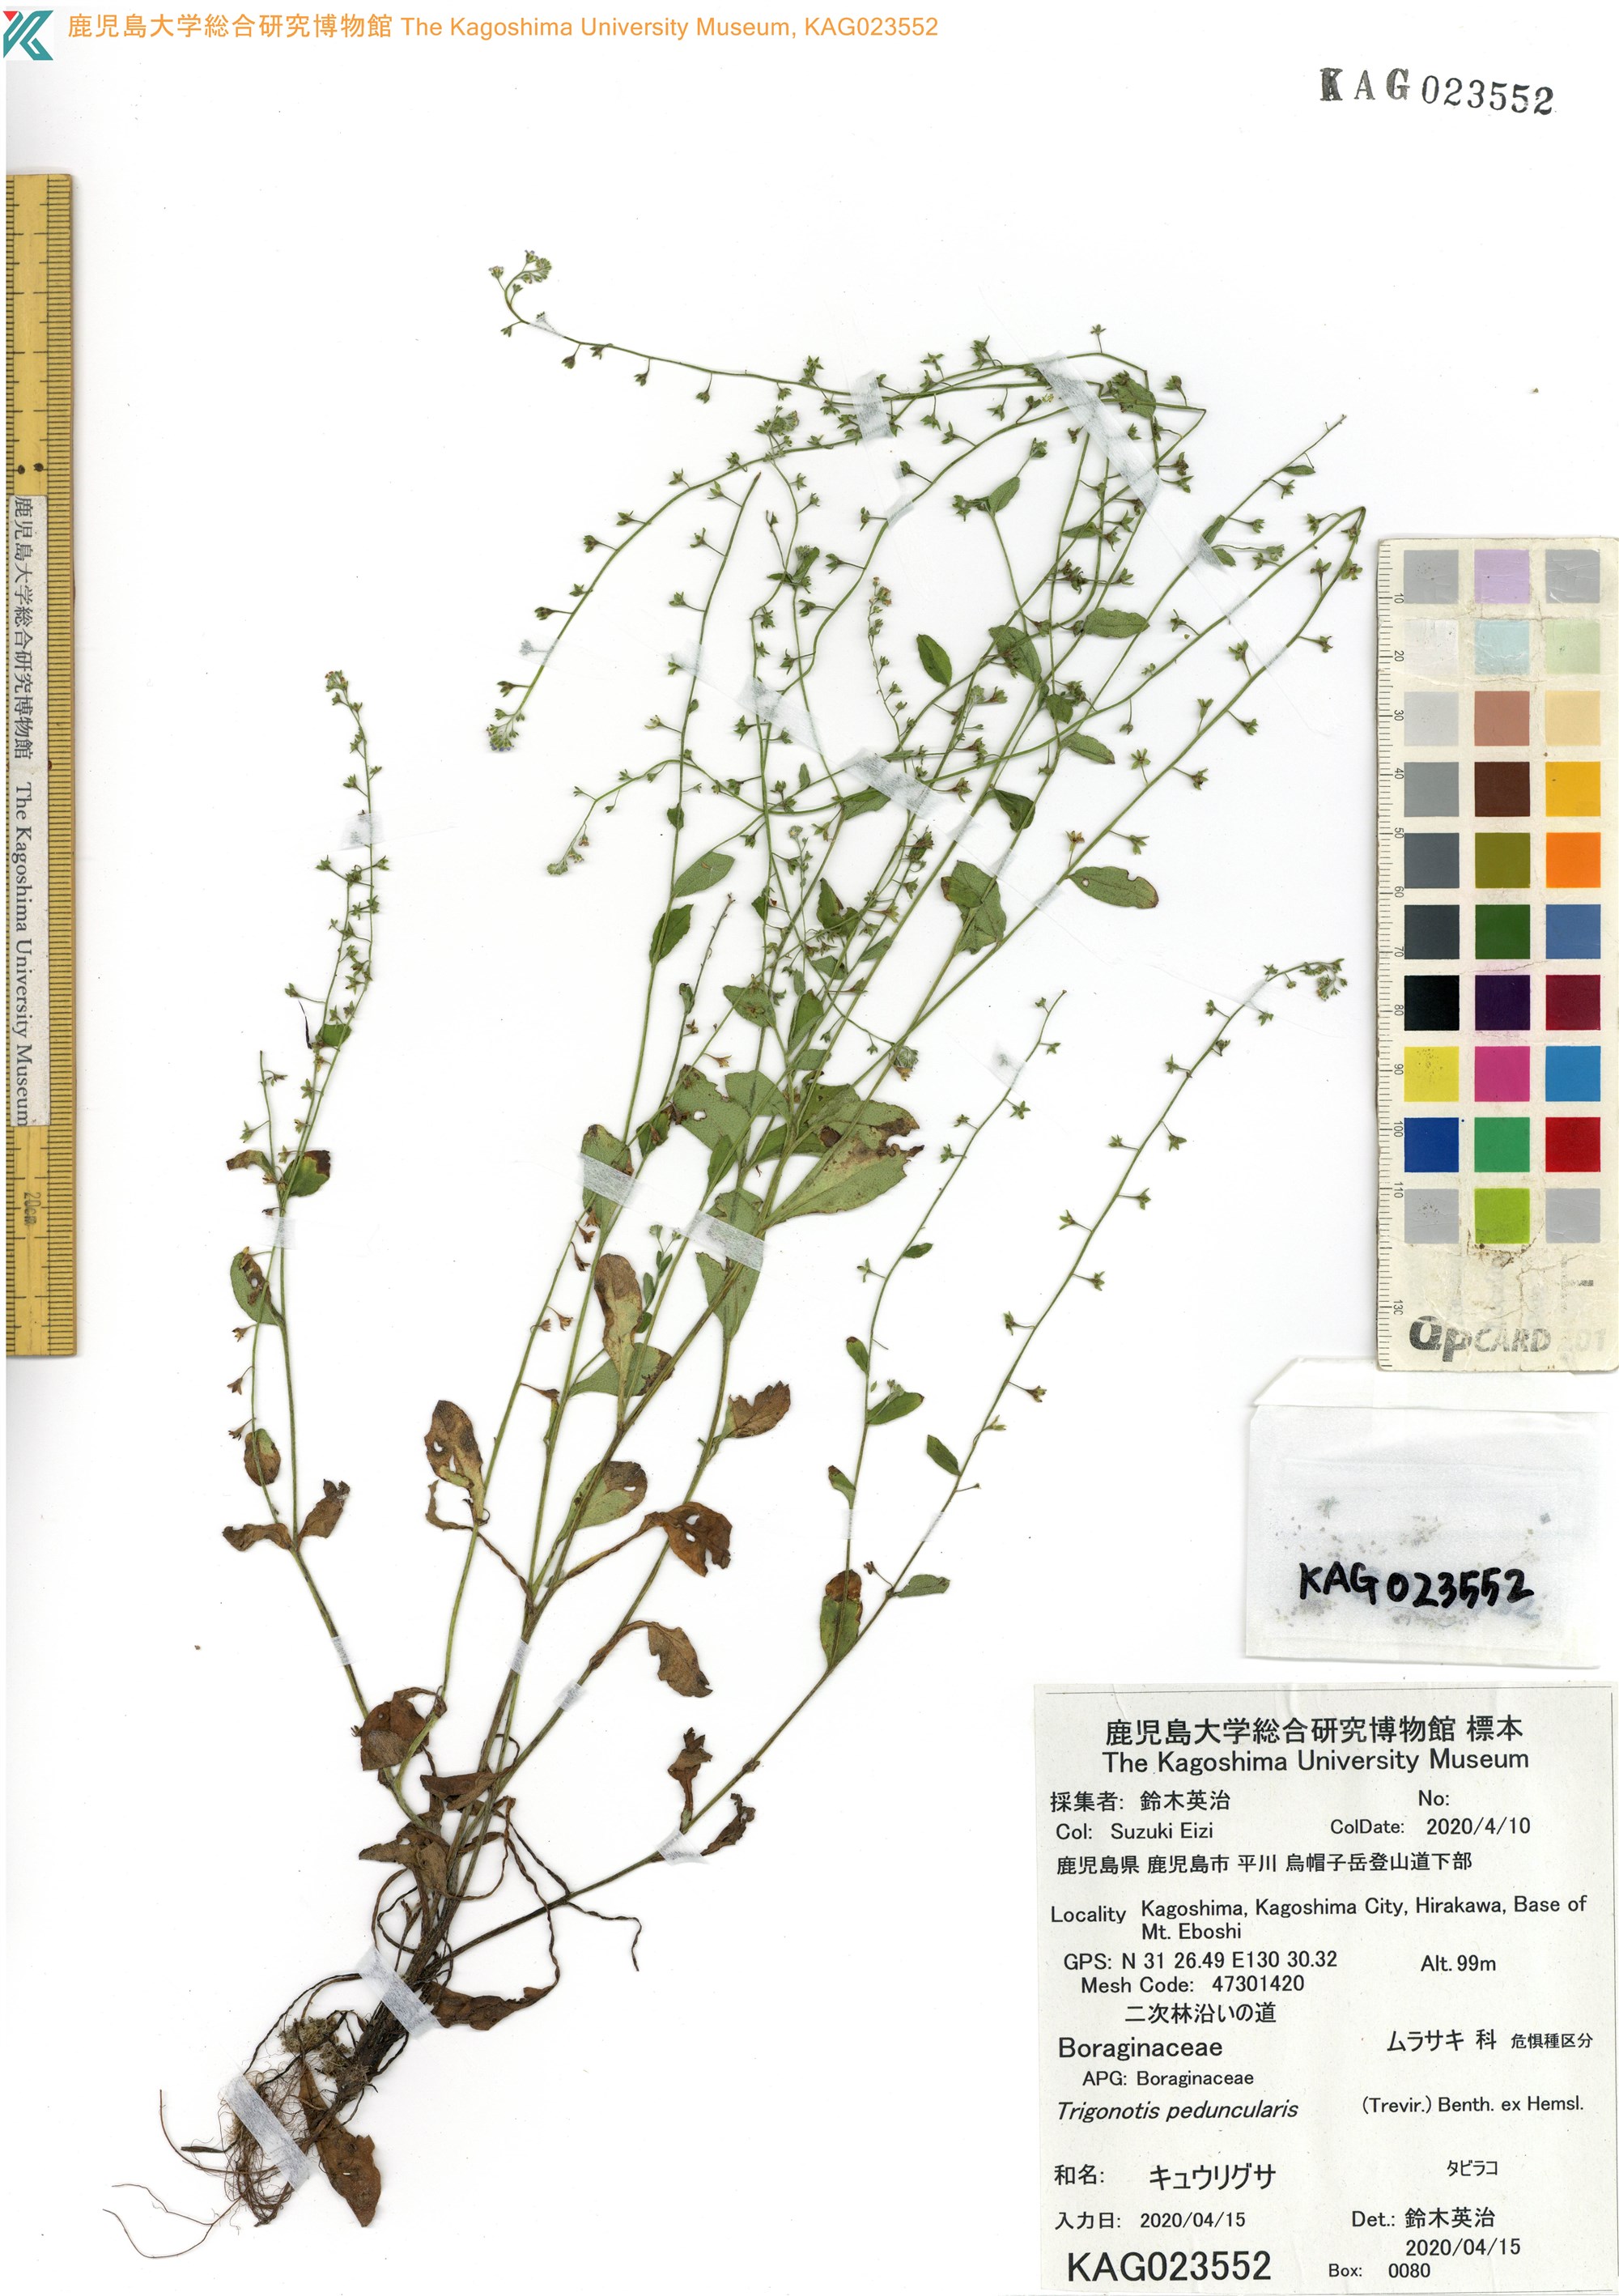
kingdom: Plantae
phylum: Tracheophyta
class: Magnoliopsida
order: Boraginales
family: Boraginaceae
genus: Trigonotis
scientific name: Trigonotis peduncularis
